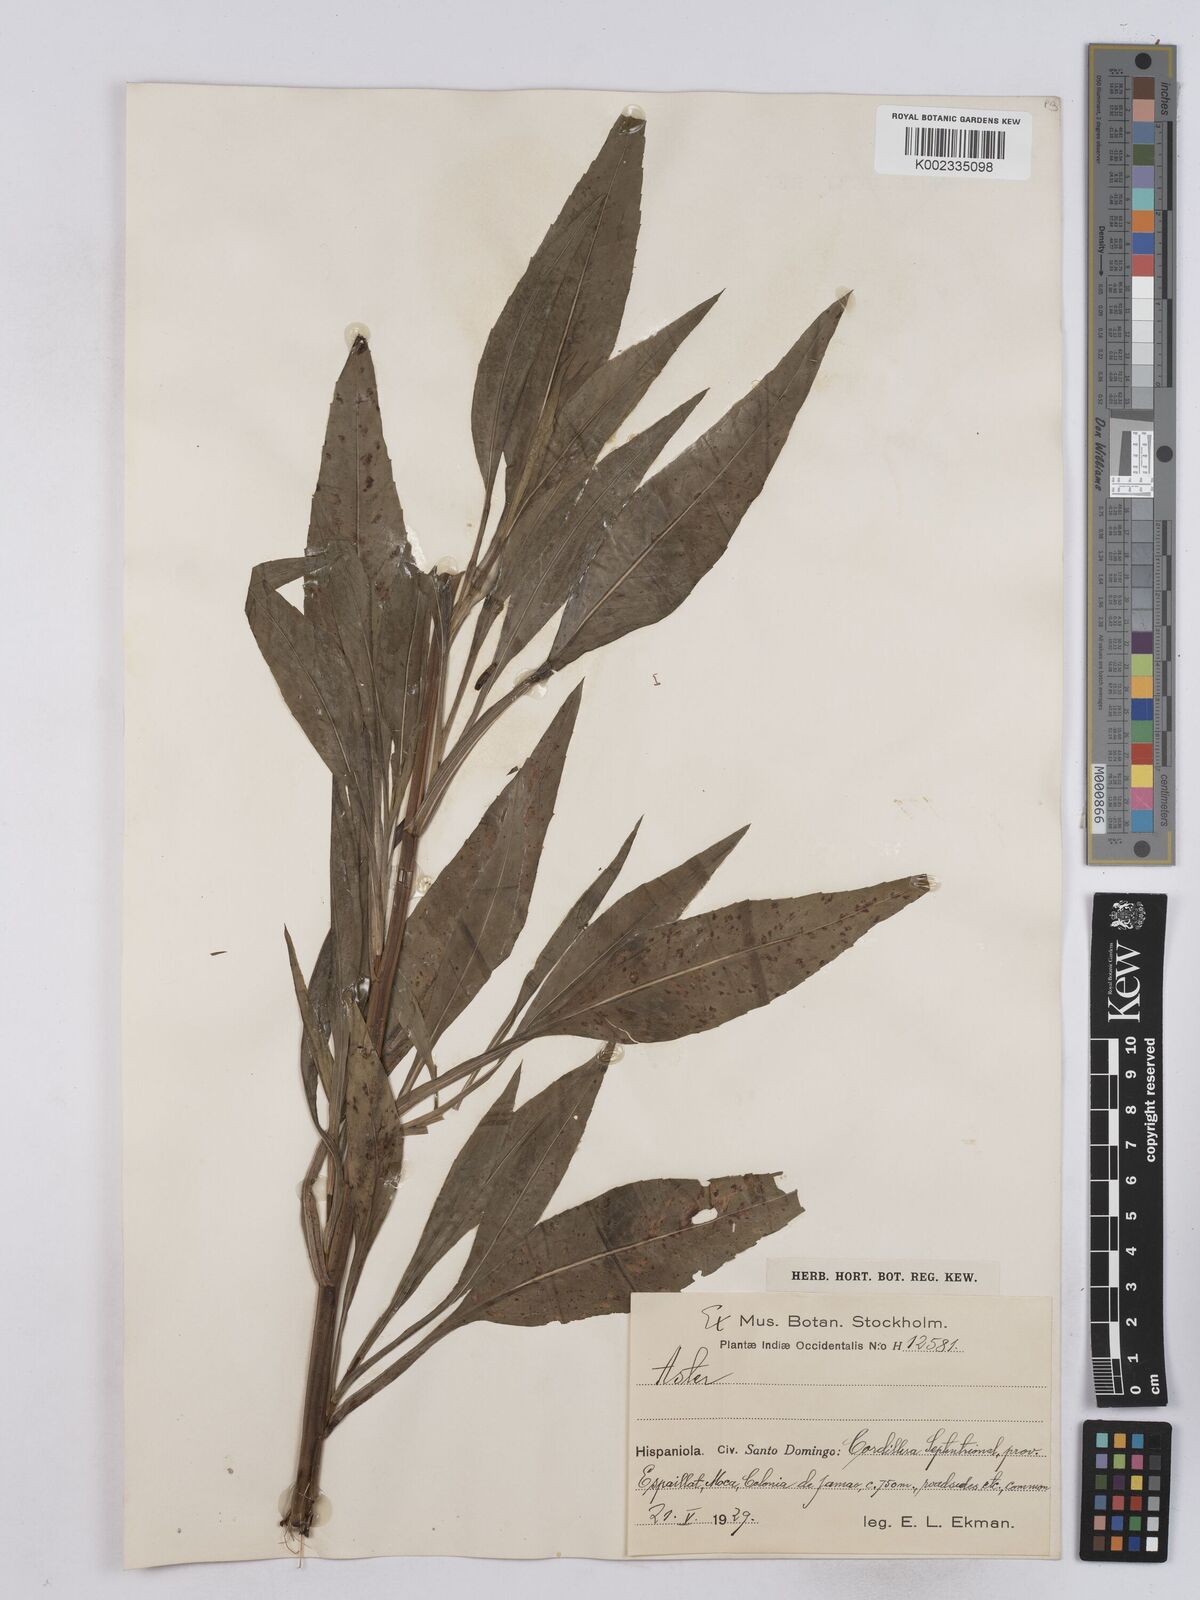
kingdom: Plantae
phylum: Tracheophyta
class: Magnoliopsida
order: Asterales
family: Asteraceae
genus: Aster
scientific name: Aster
